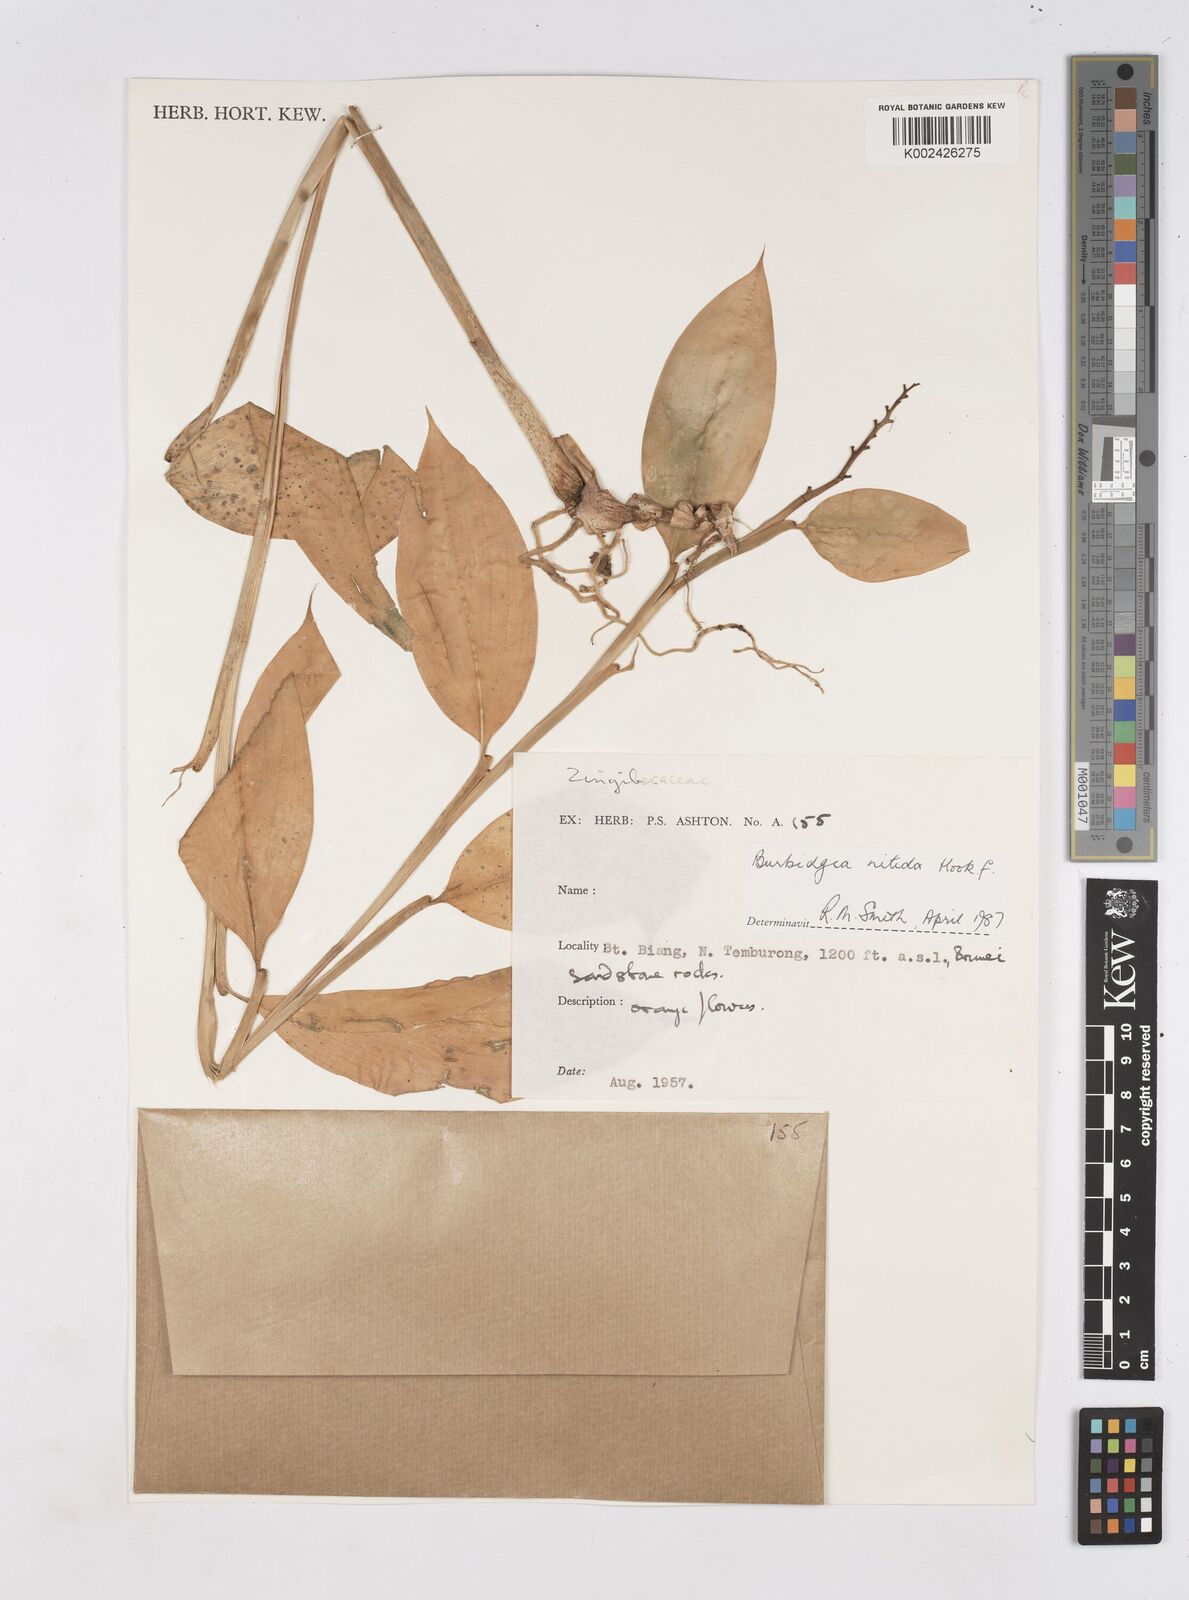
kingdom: Plantae
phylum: Tracheophyta
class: Liliopsida
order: Zingiberales
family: Zingiberaceae
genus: Burbidgea
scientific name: Burbidgea nitida
